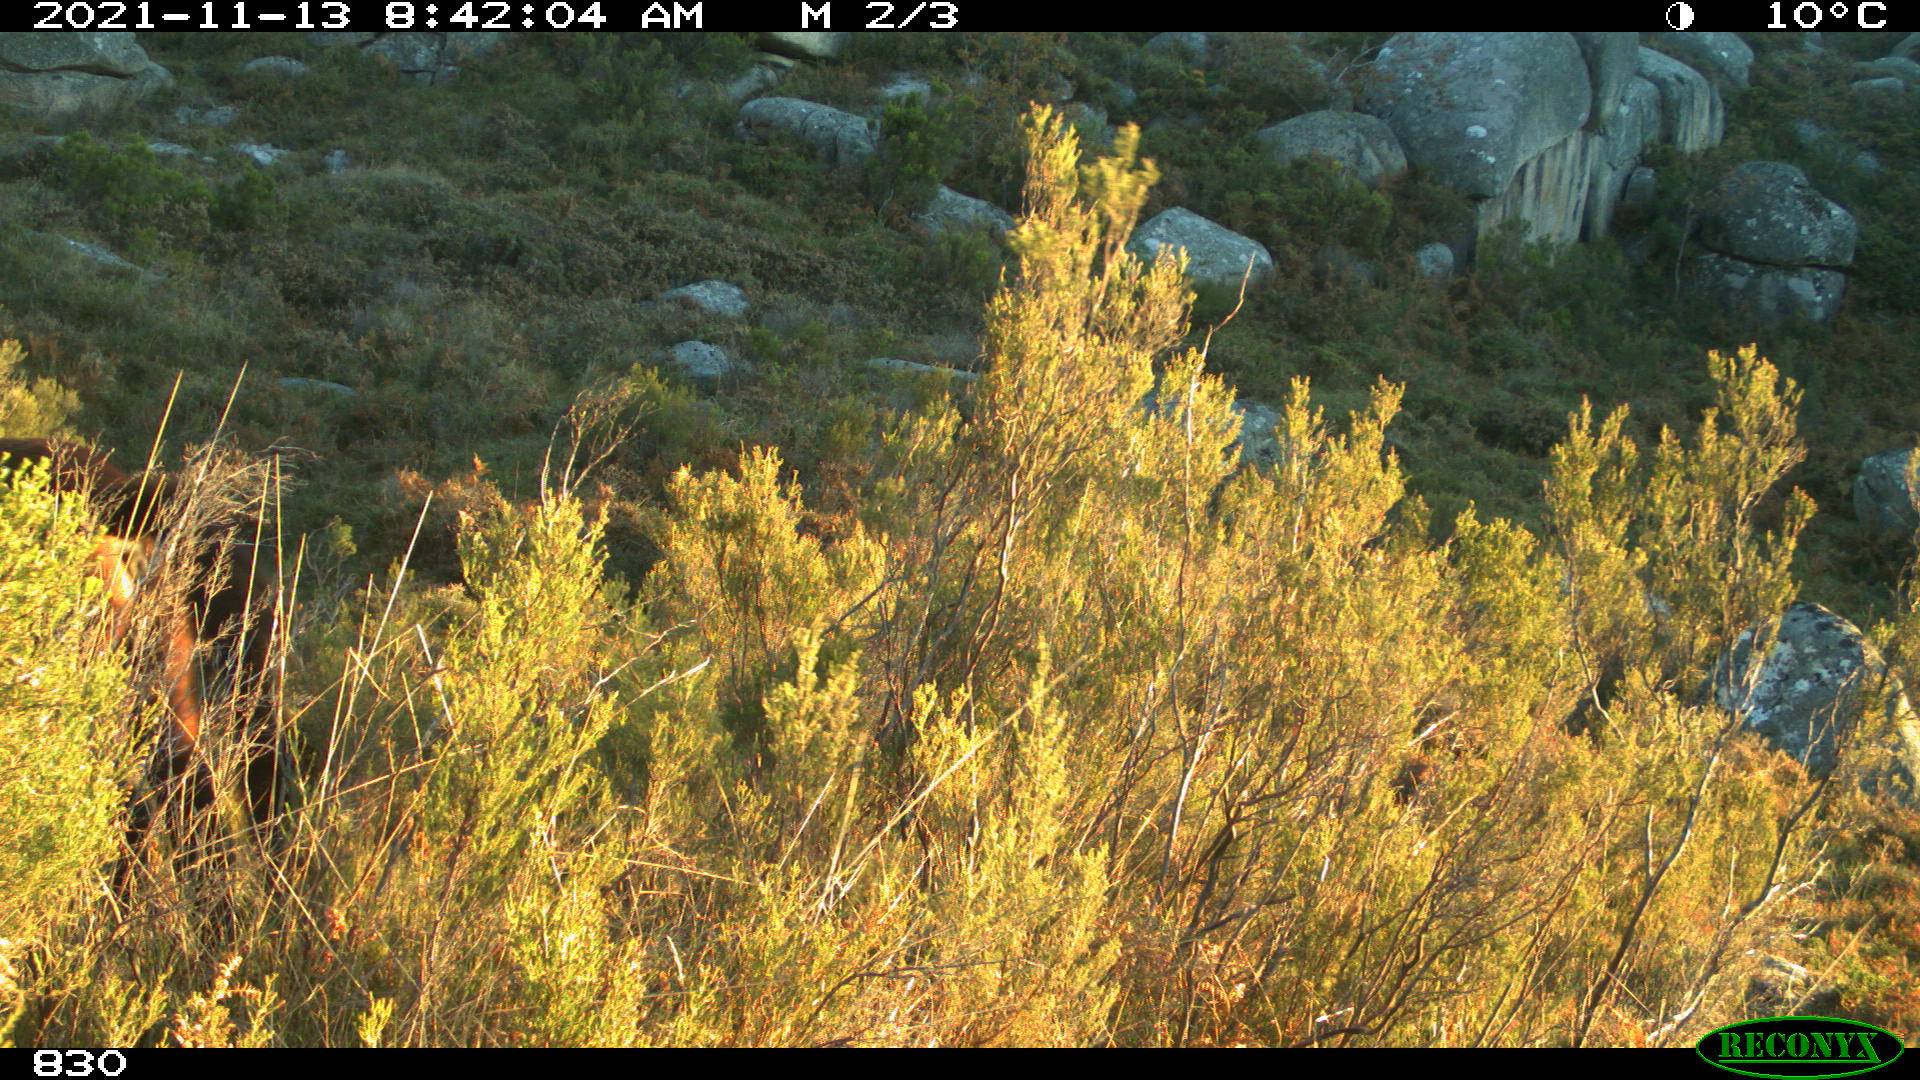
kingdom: Animalia
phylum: Chordata
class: Mammalia
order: Perissodactyla
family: Equidae
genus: Equus
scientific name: Equus caballus
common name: Horse
